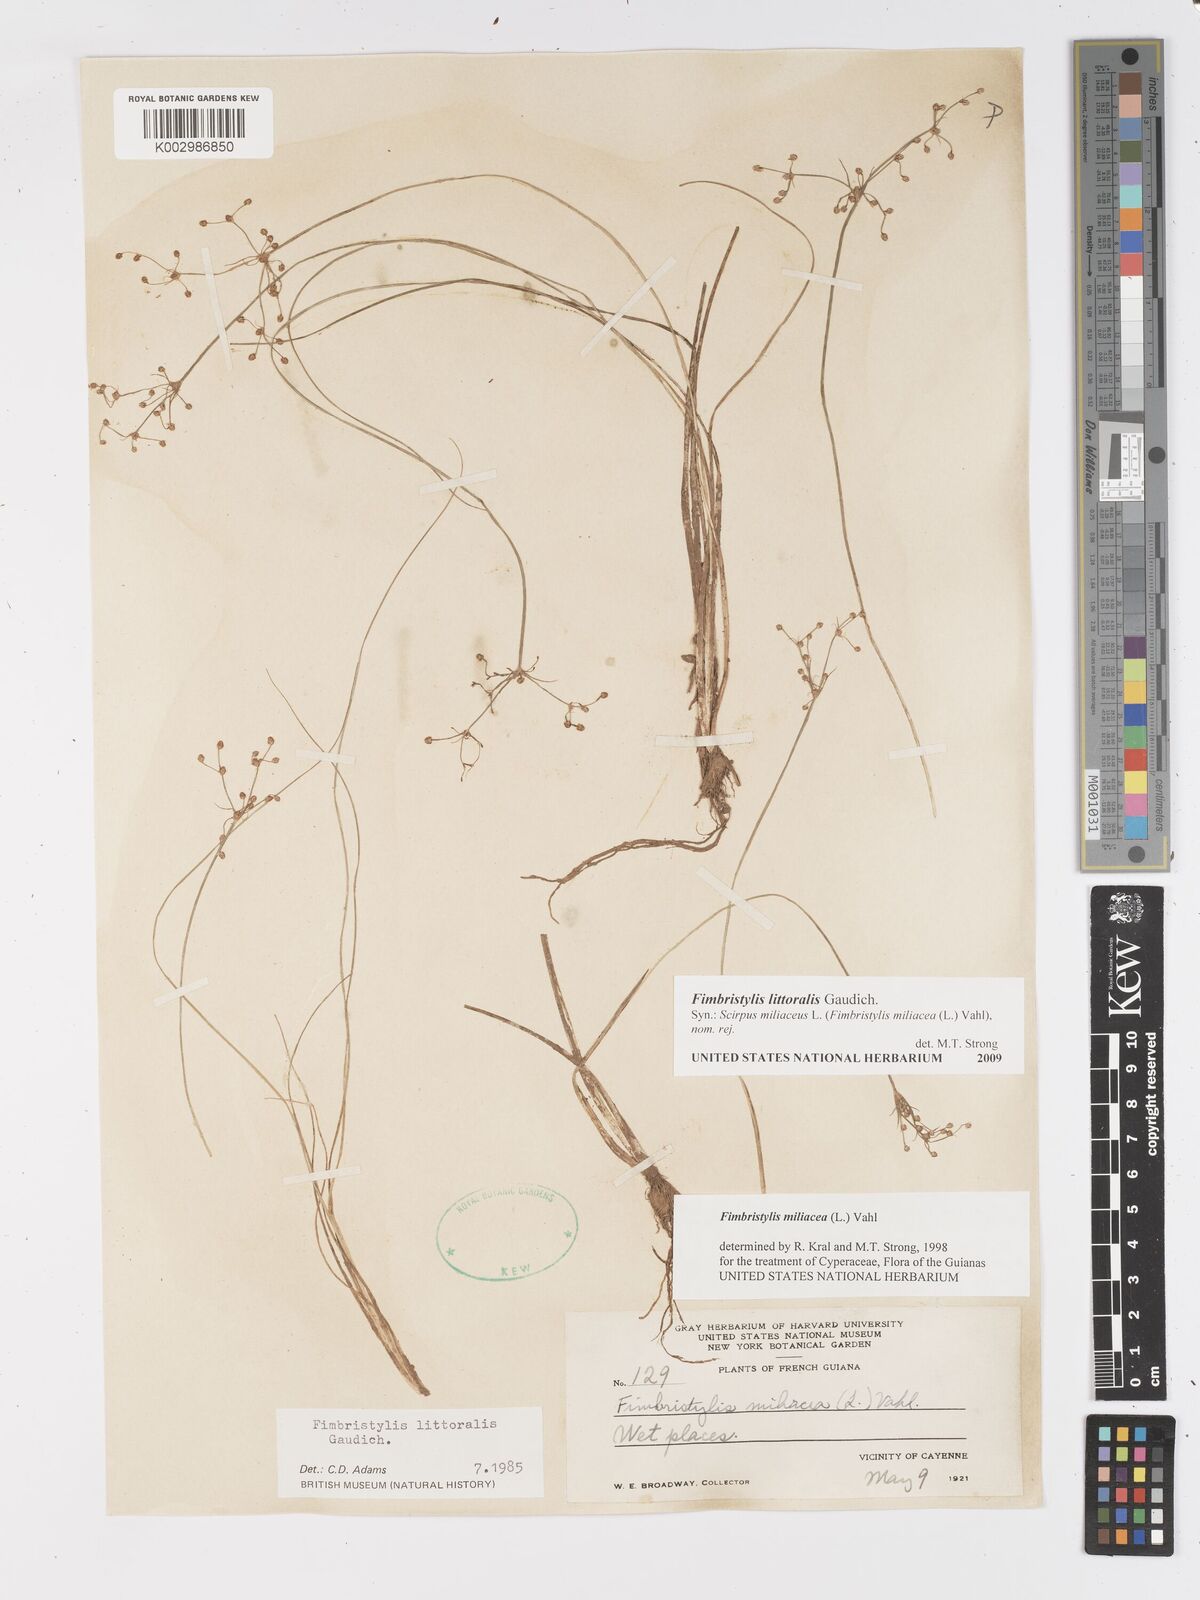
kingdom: Plantae
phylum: Tracheophyta
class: Liliopsida
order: Poales
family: Cyperaceae
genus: Fimbristylis
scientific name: Fimbristylis littoralis
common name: Fimbry
